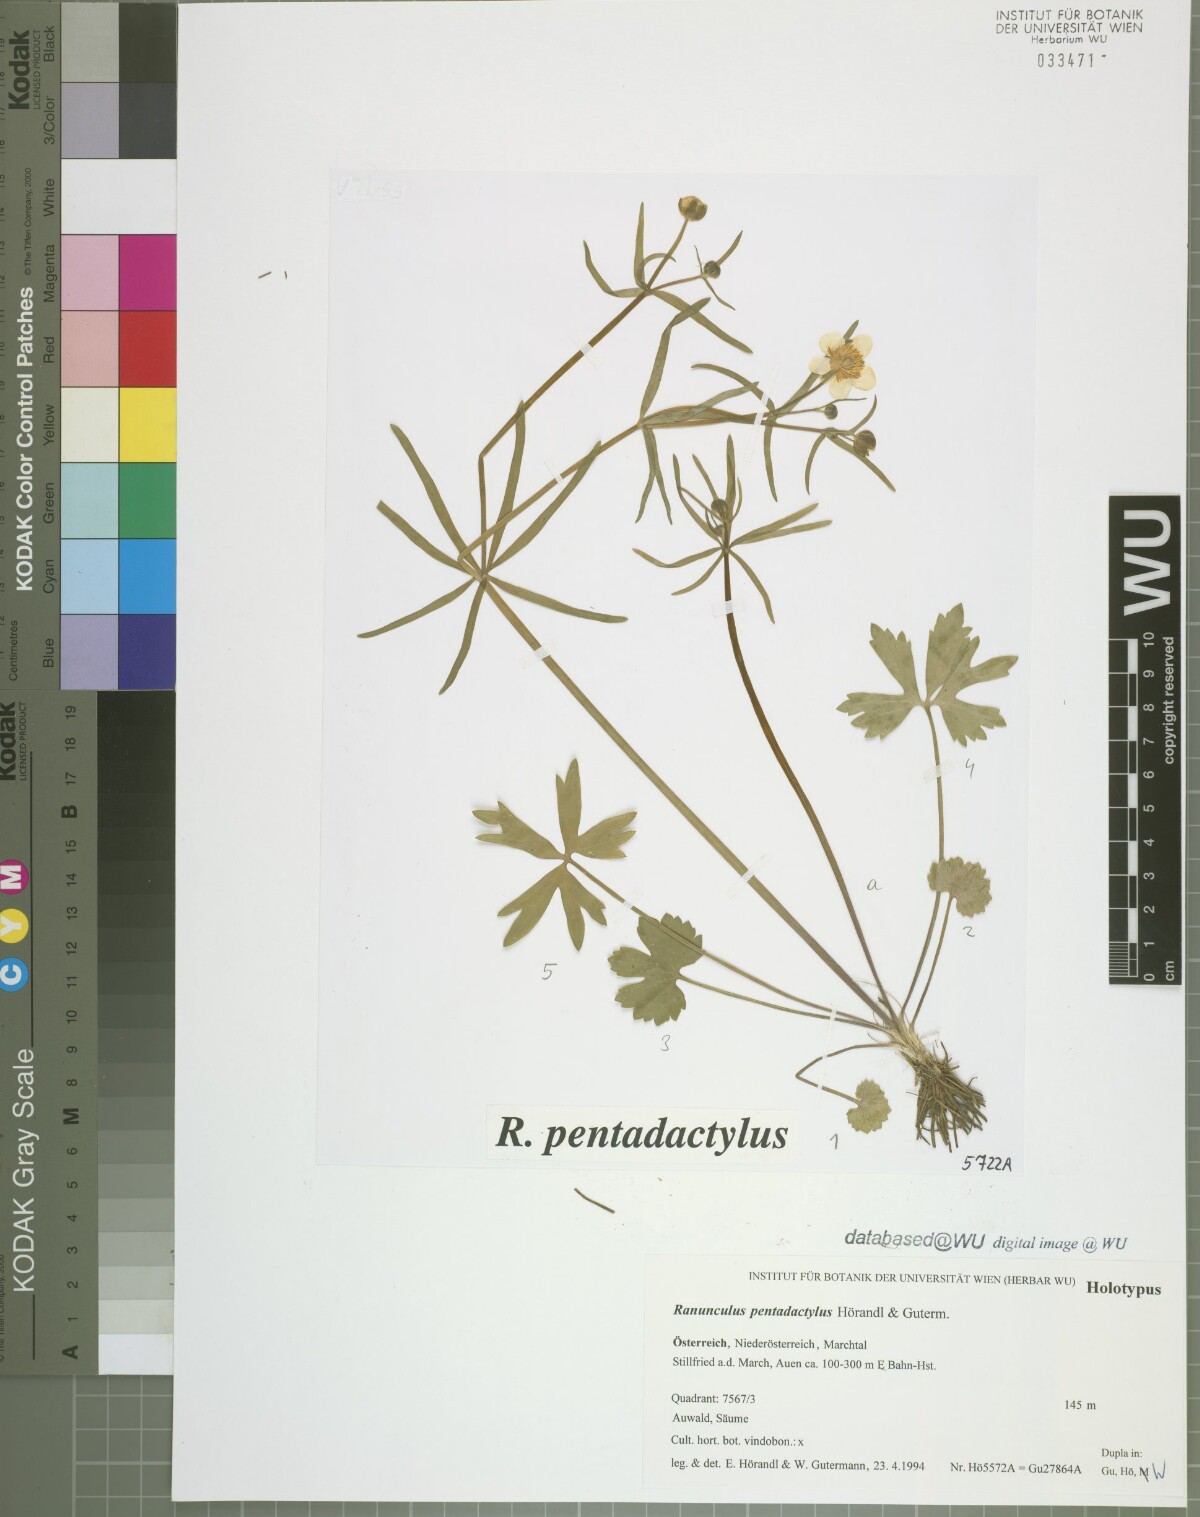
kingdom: Plantae
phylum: Tracheophyta
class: Magnoliopsida
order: Ranunculales
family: Ranunculaceae
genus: Ranunculus
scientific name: Ranunculus pentadactylus
